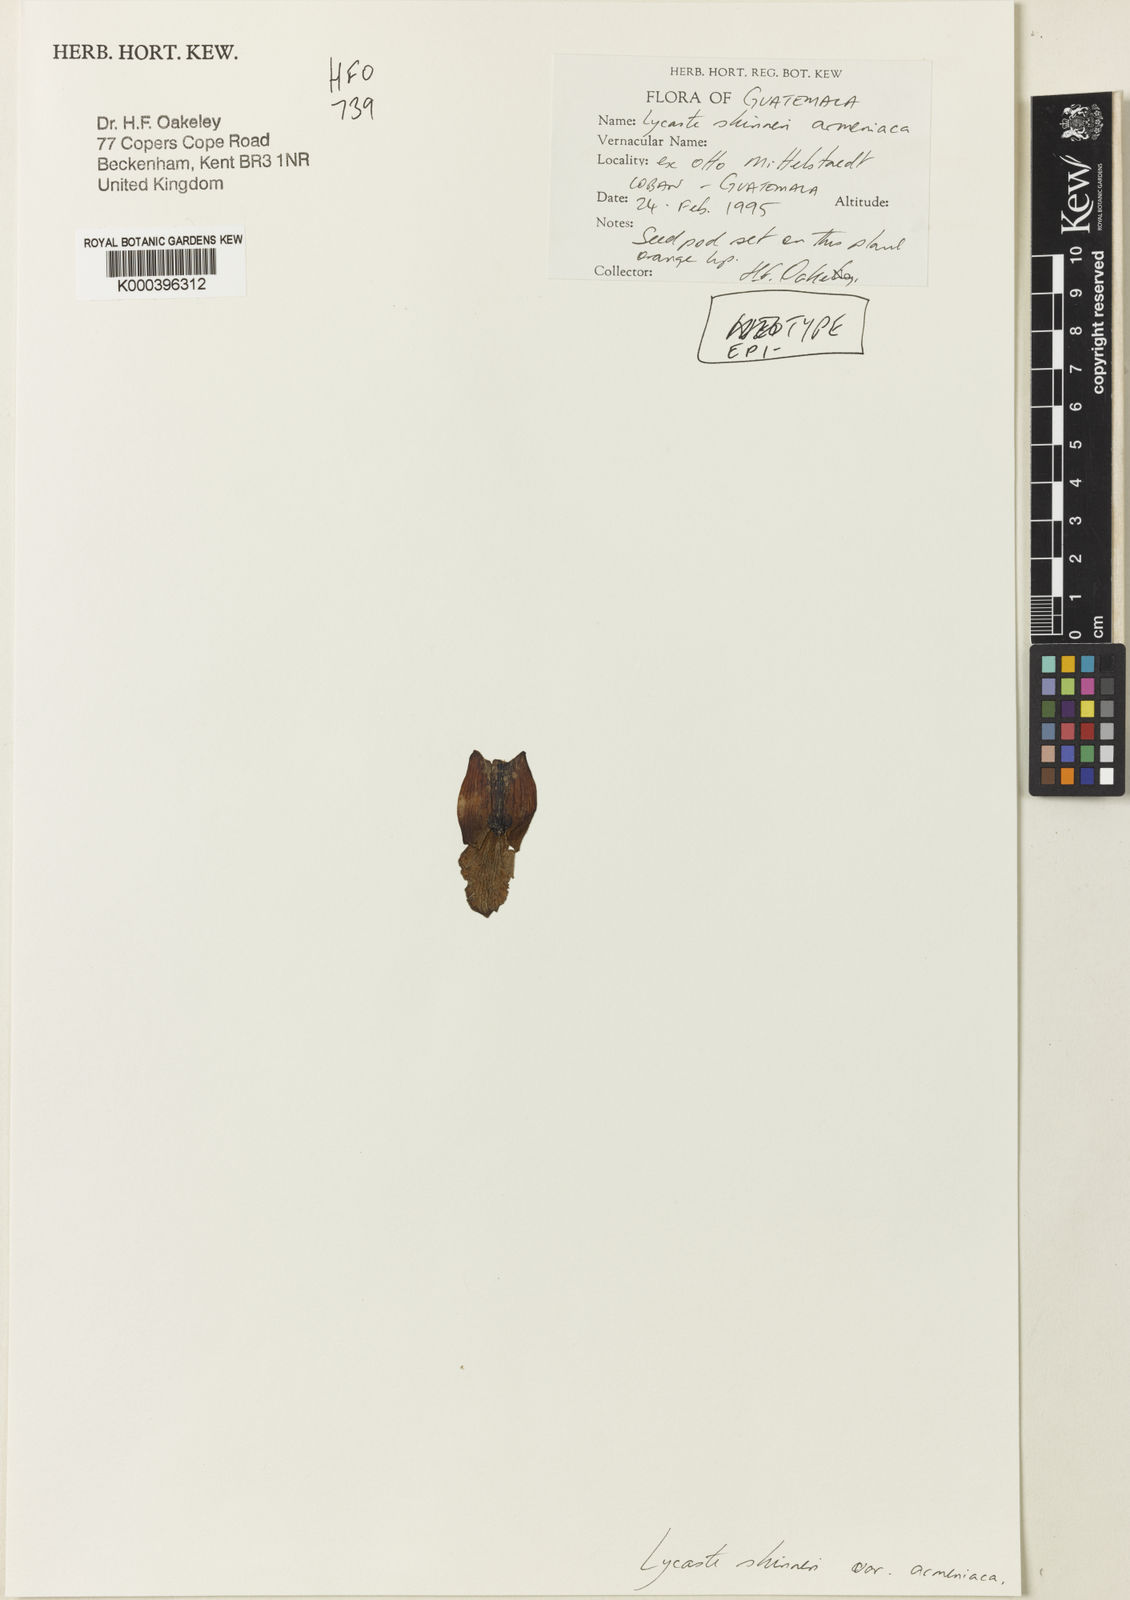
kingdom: Plantae
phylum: Tracheophyta
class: Liliopsida
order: Asparagales
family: Orchidaceae
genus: Lycaste
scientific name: Lycaste virginalis
